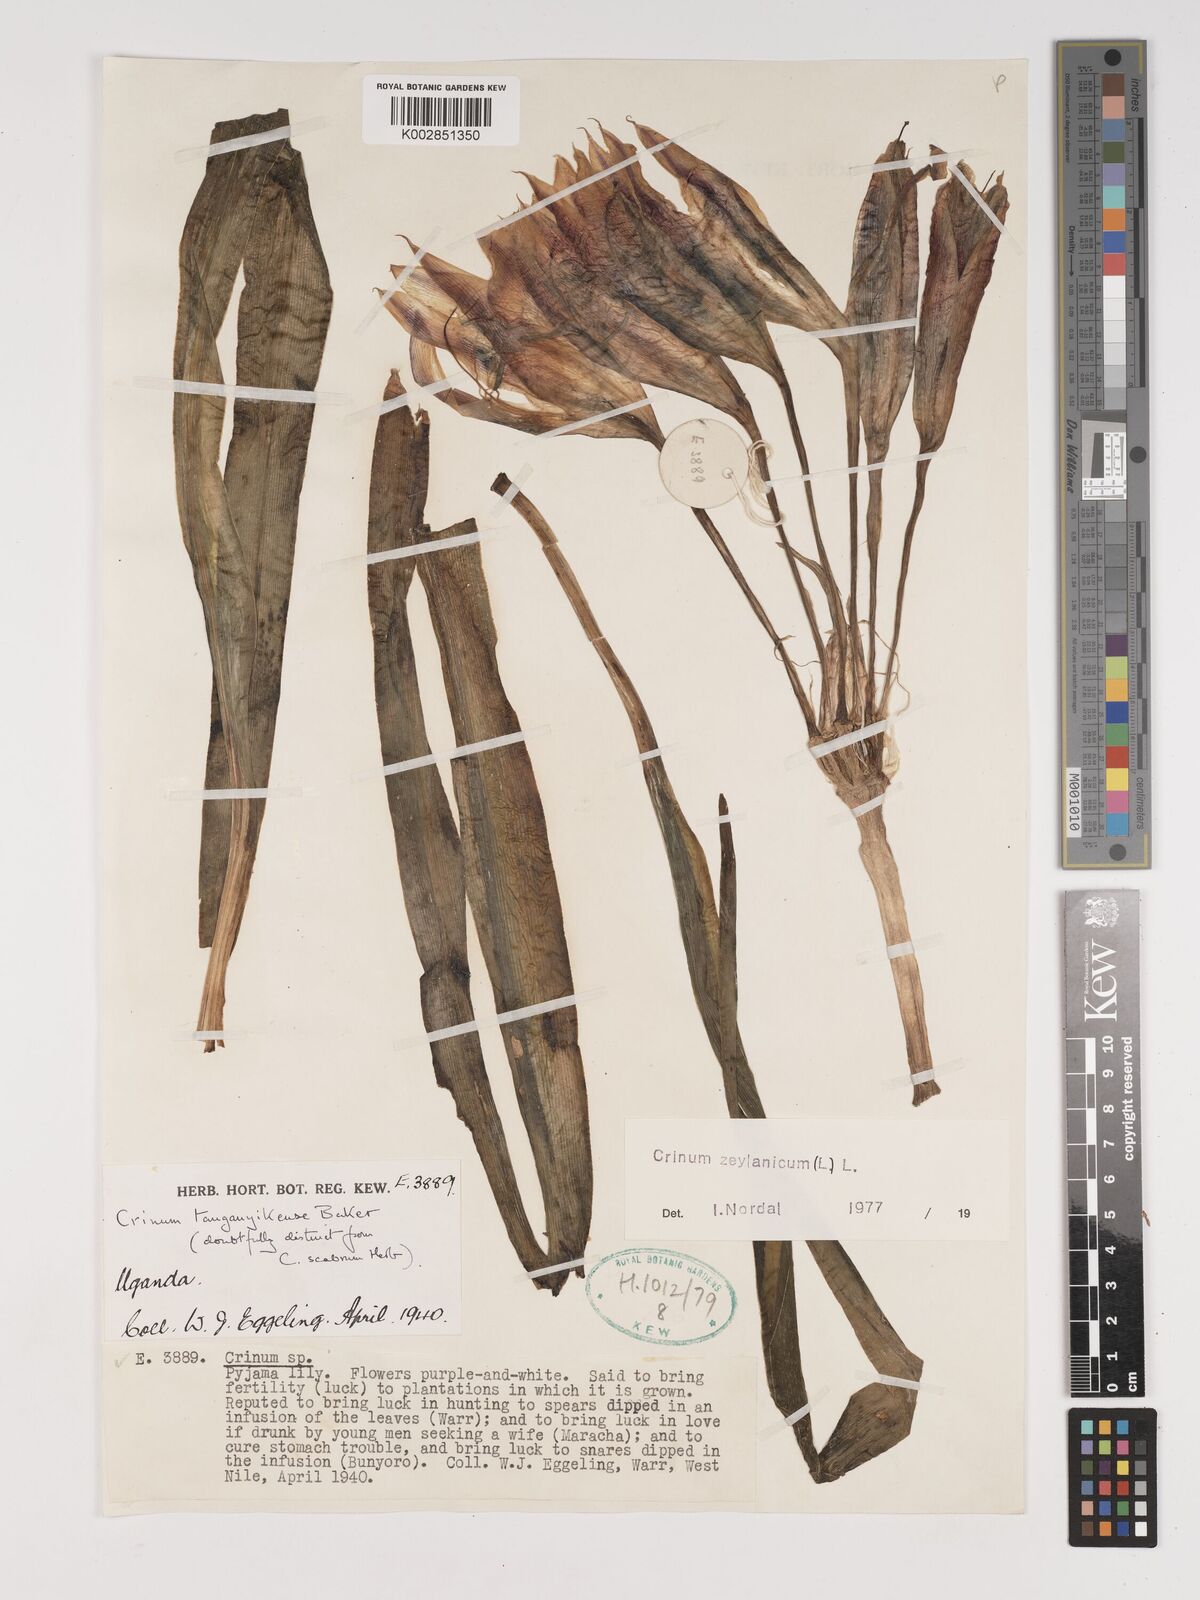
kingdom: Plantae
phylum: Tracheophyta
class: Liliopsida
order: Asparagales
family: Amaryllidaceae
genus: Crinum
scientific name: Crinum zeylanicum
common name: Ceylon swamplily
